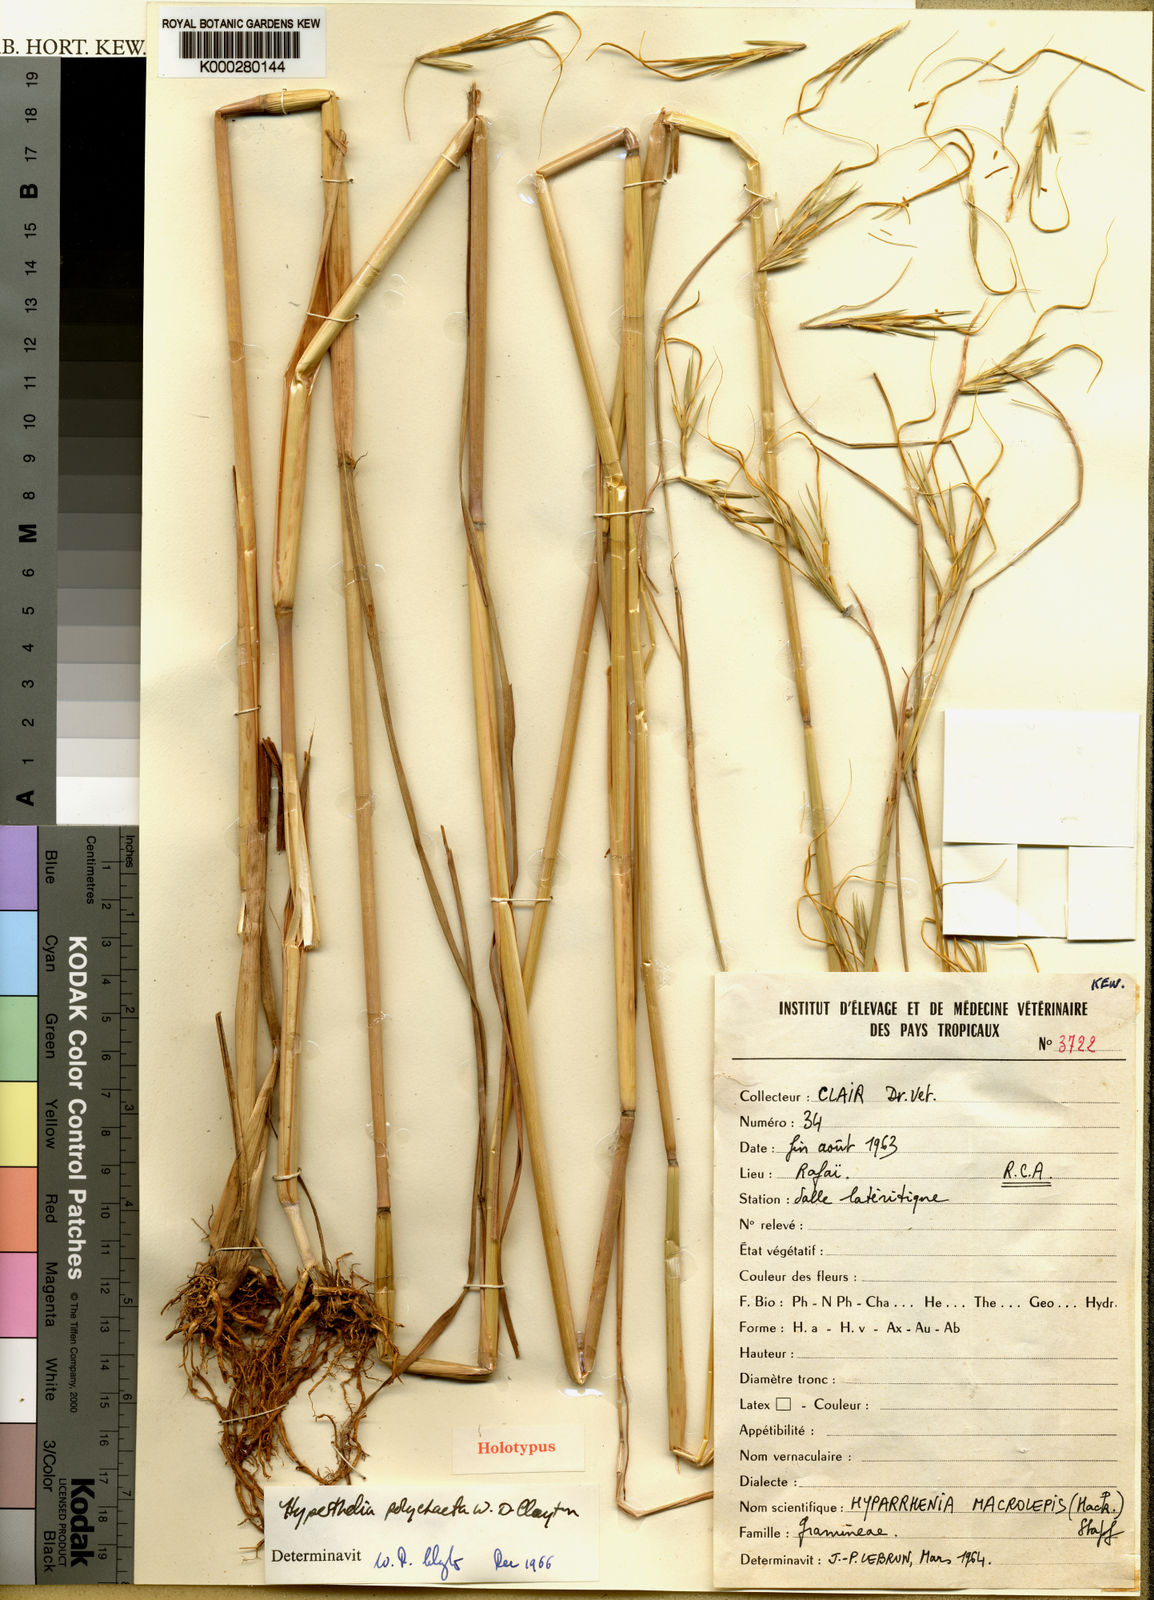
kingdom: Plantae
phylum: Tracheophyta
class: Liliopsida
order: Poales
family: Poaceae
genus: Hyperthelia
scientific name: Hyperthelia polychaeta
